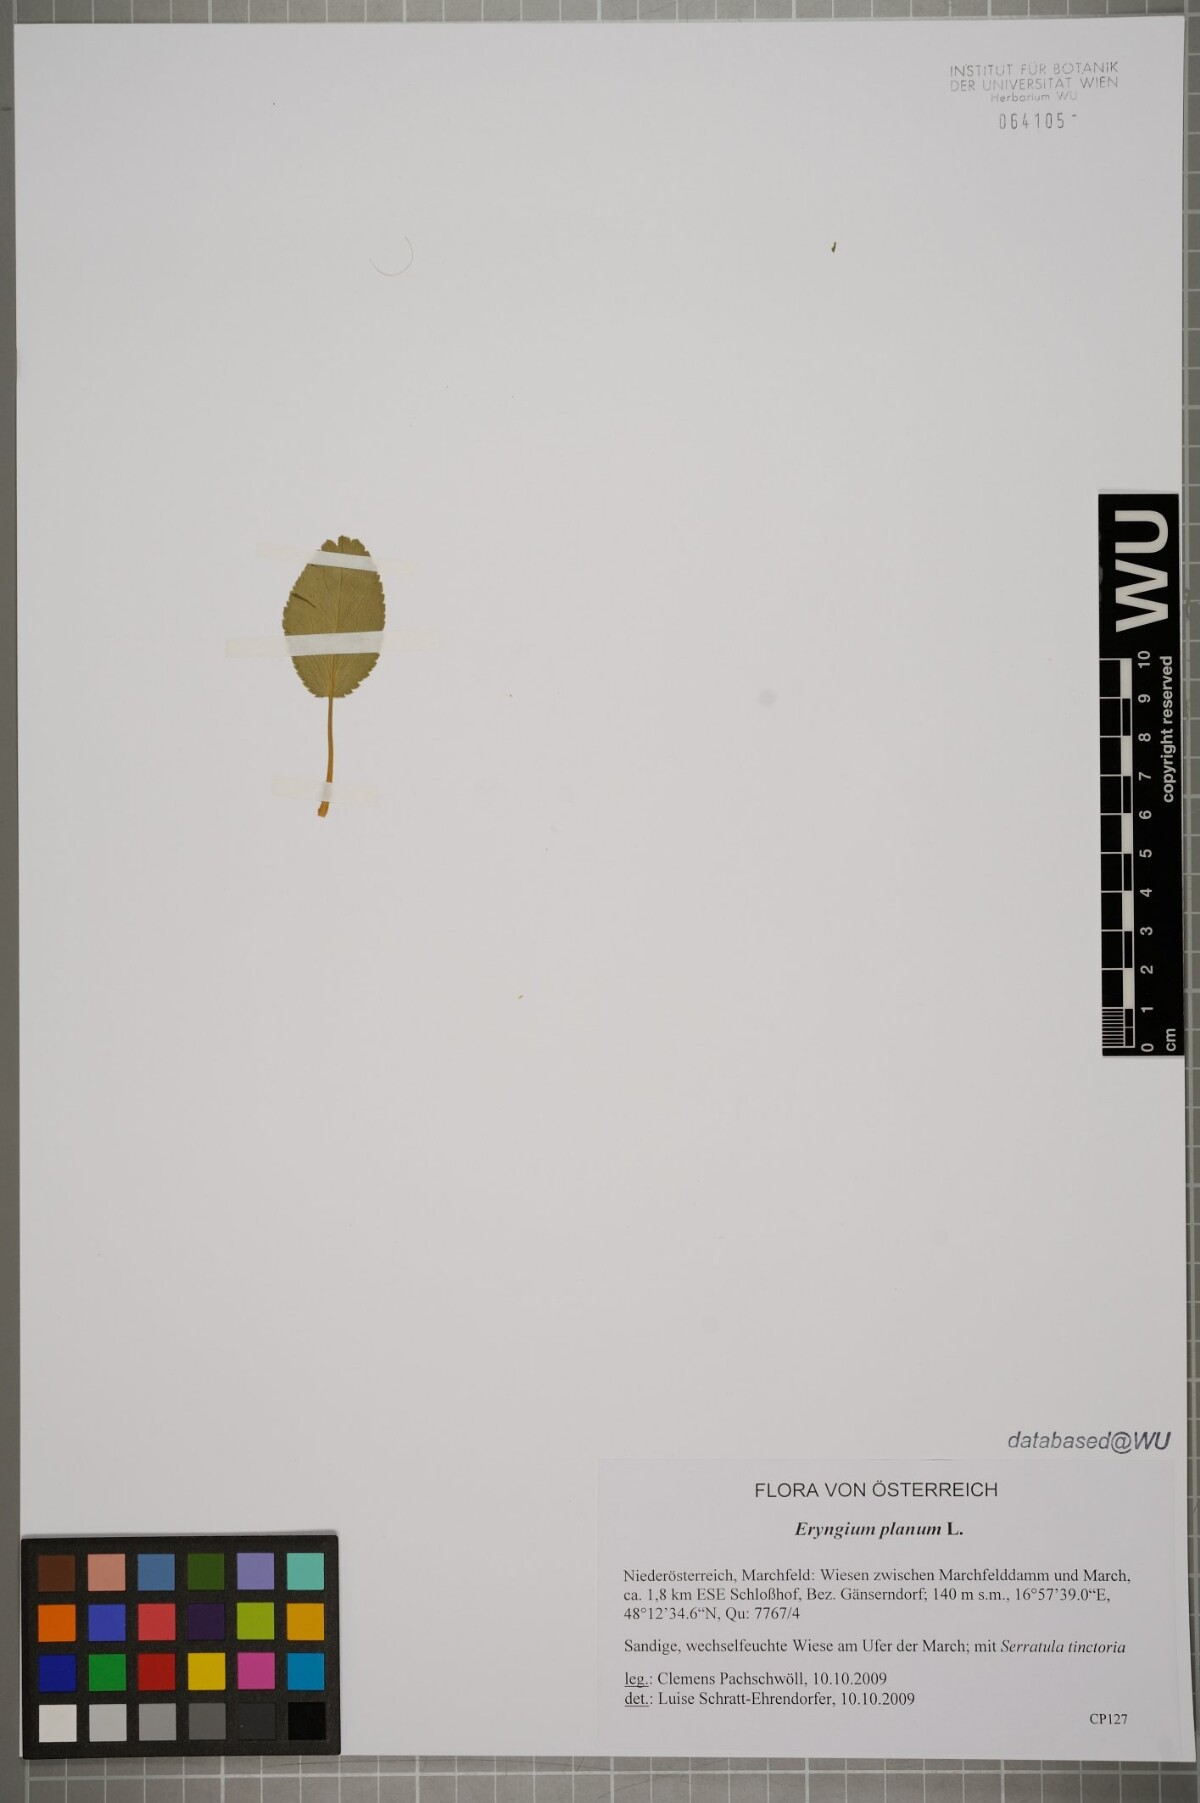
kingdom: Plantae
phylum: Tracheophyta
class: Magnoliopsida
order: Apiales
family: Apiaceae
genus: Eryngium
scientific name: Eryngium planum
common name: Blue eryngo
